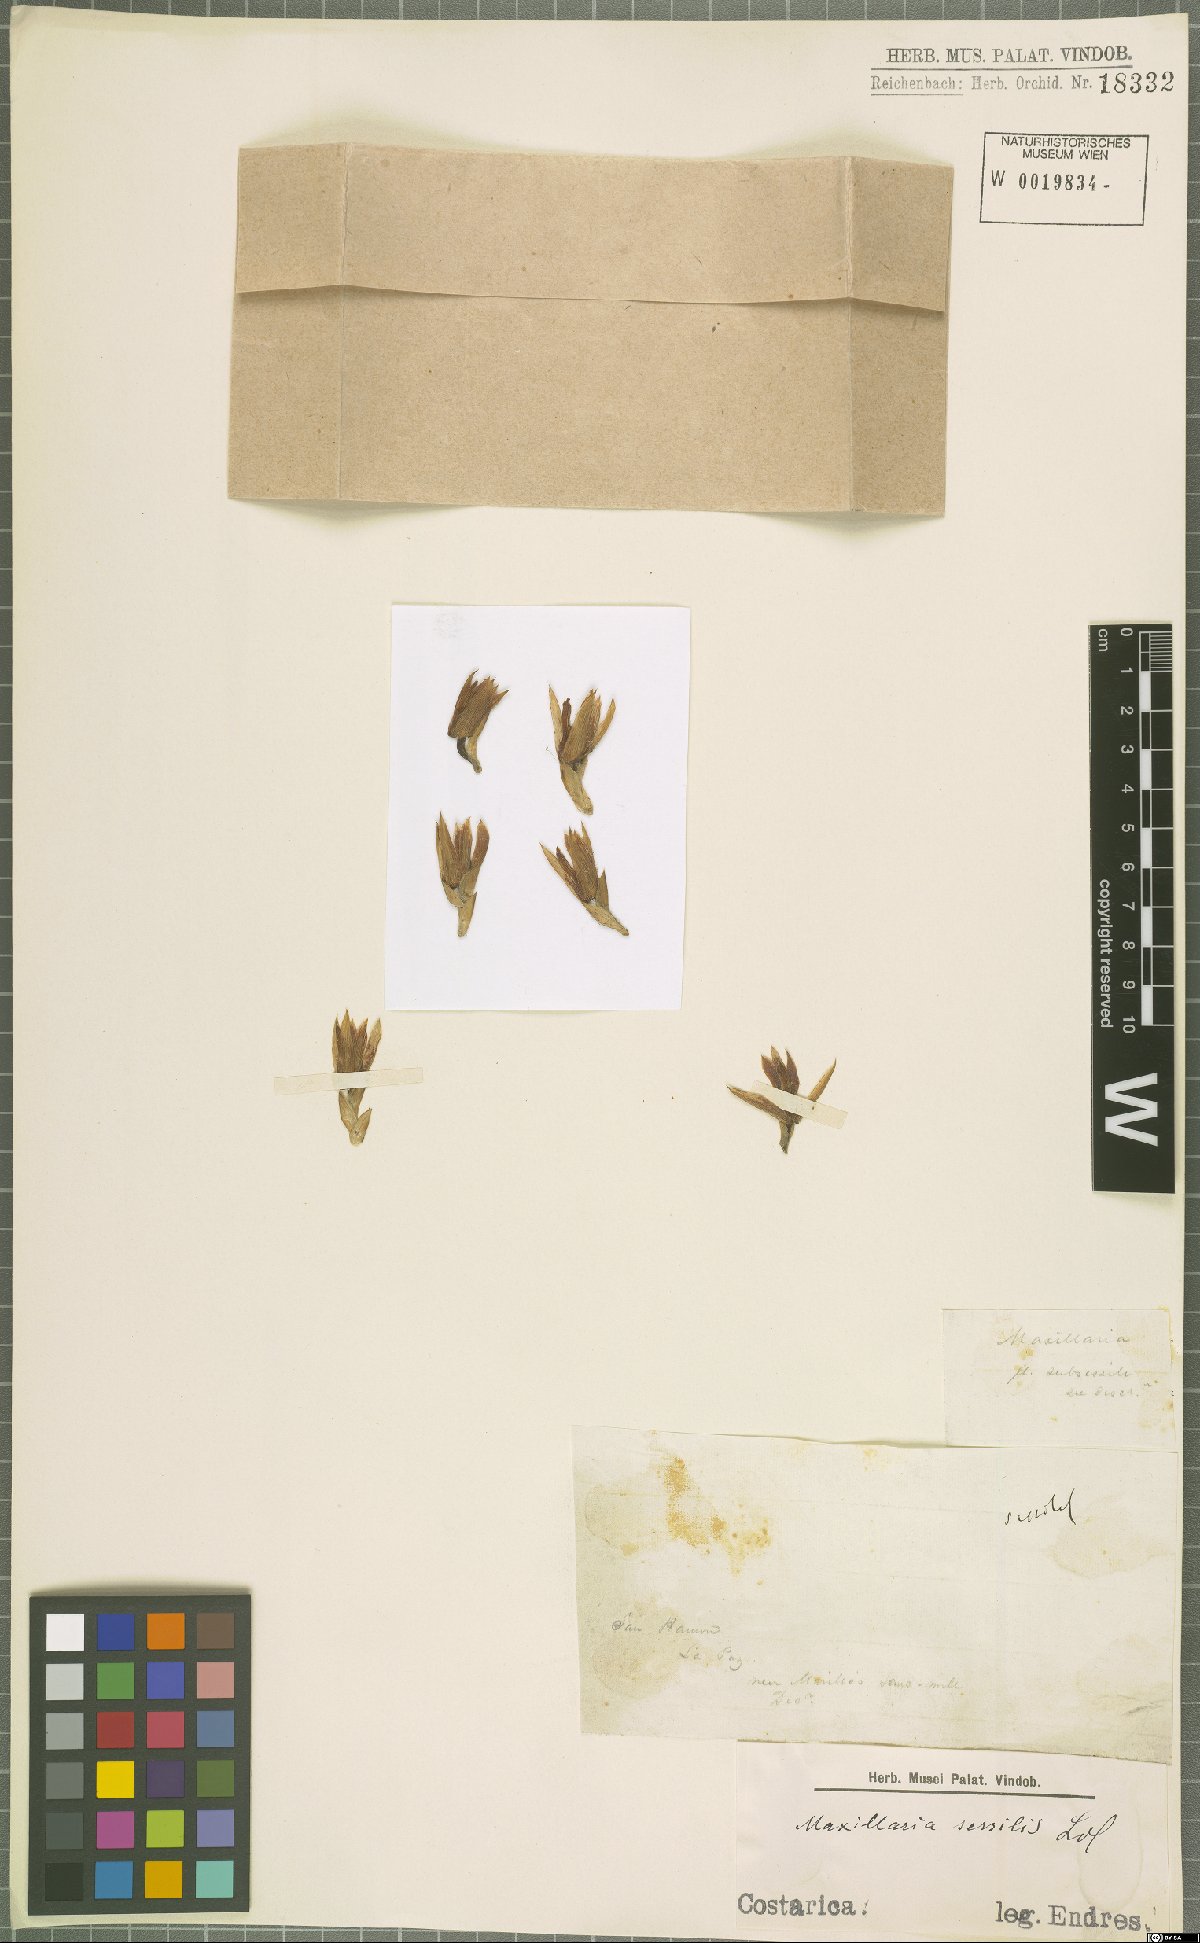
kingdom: Plantae
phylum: Tracheophyta
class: Liliopsida
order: Asparagales
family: Orchidaceae
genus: Maxillaria
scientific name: Maxillaria sessilis
